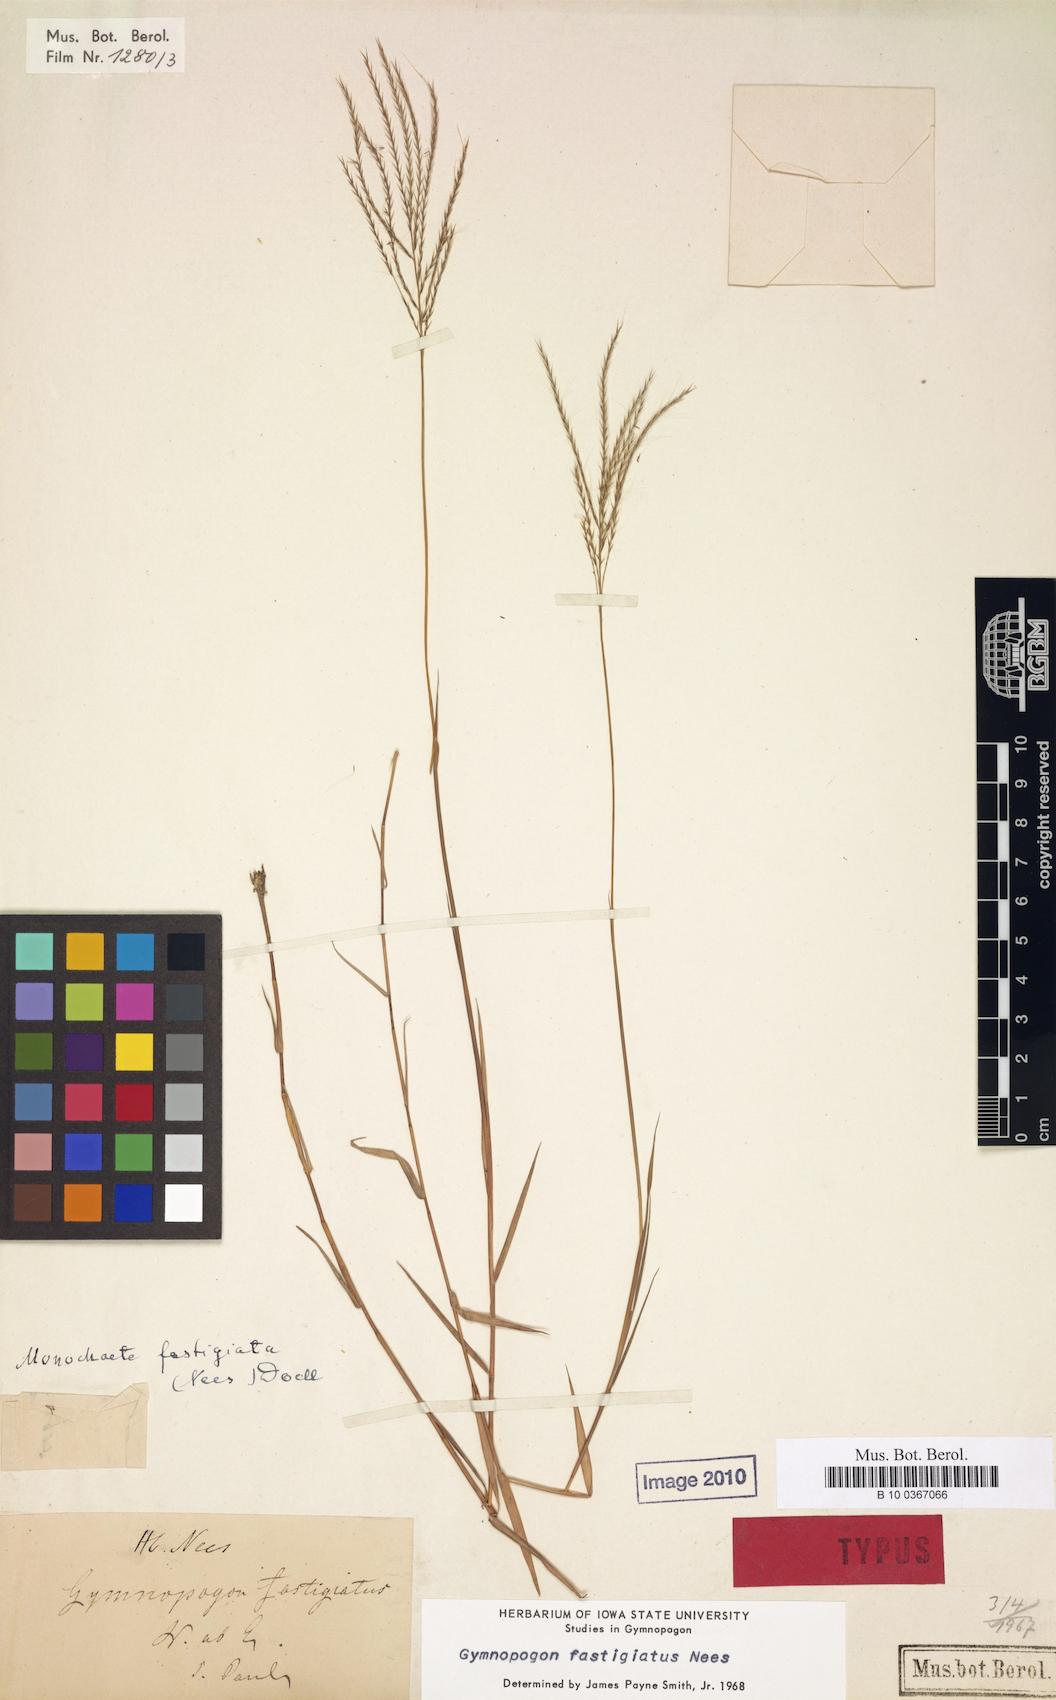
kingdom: Plantae
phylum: Tracheophyta
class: Liliopsida
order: Poales
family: Poaceae
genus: Gymnopogon
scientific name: Gymnopogon fastigiatus
